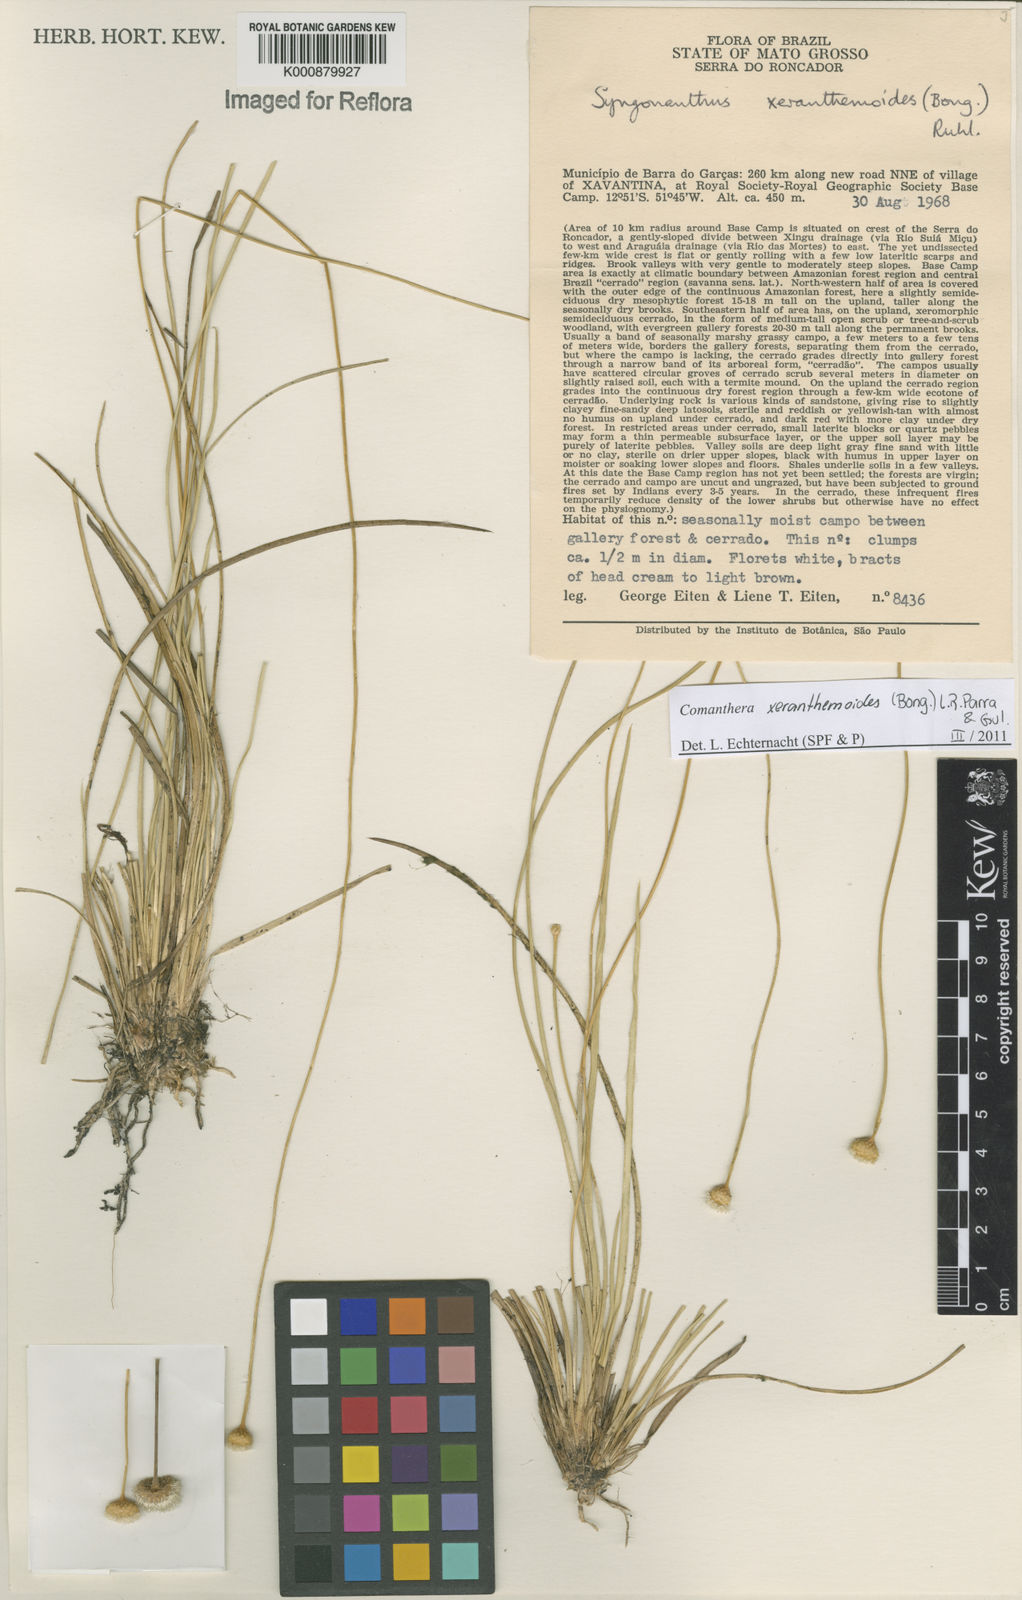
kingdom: Plantae
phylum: Tracheophyta
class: Liliopsida
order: Poales
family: Eriocaulaceae
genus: Comanthera
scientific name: Comanthera xeranthemoides
